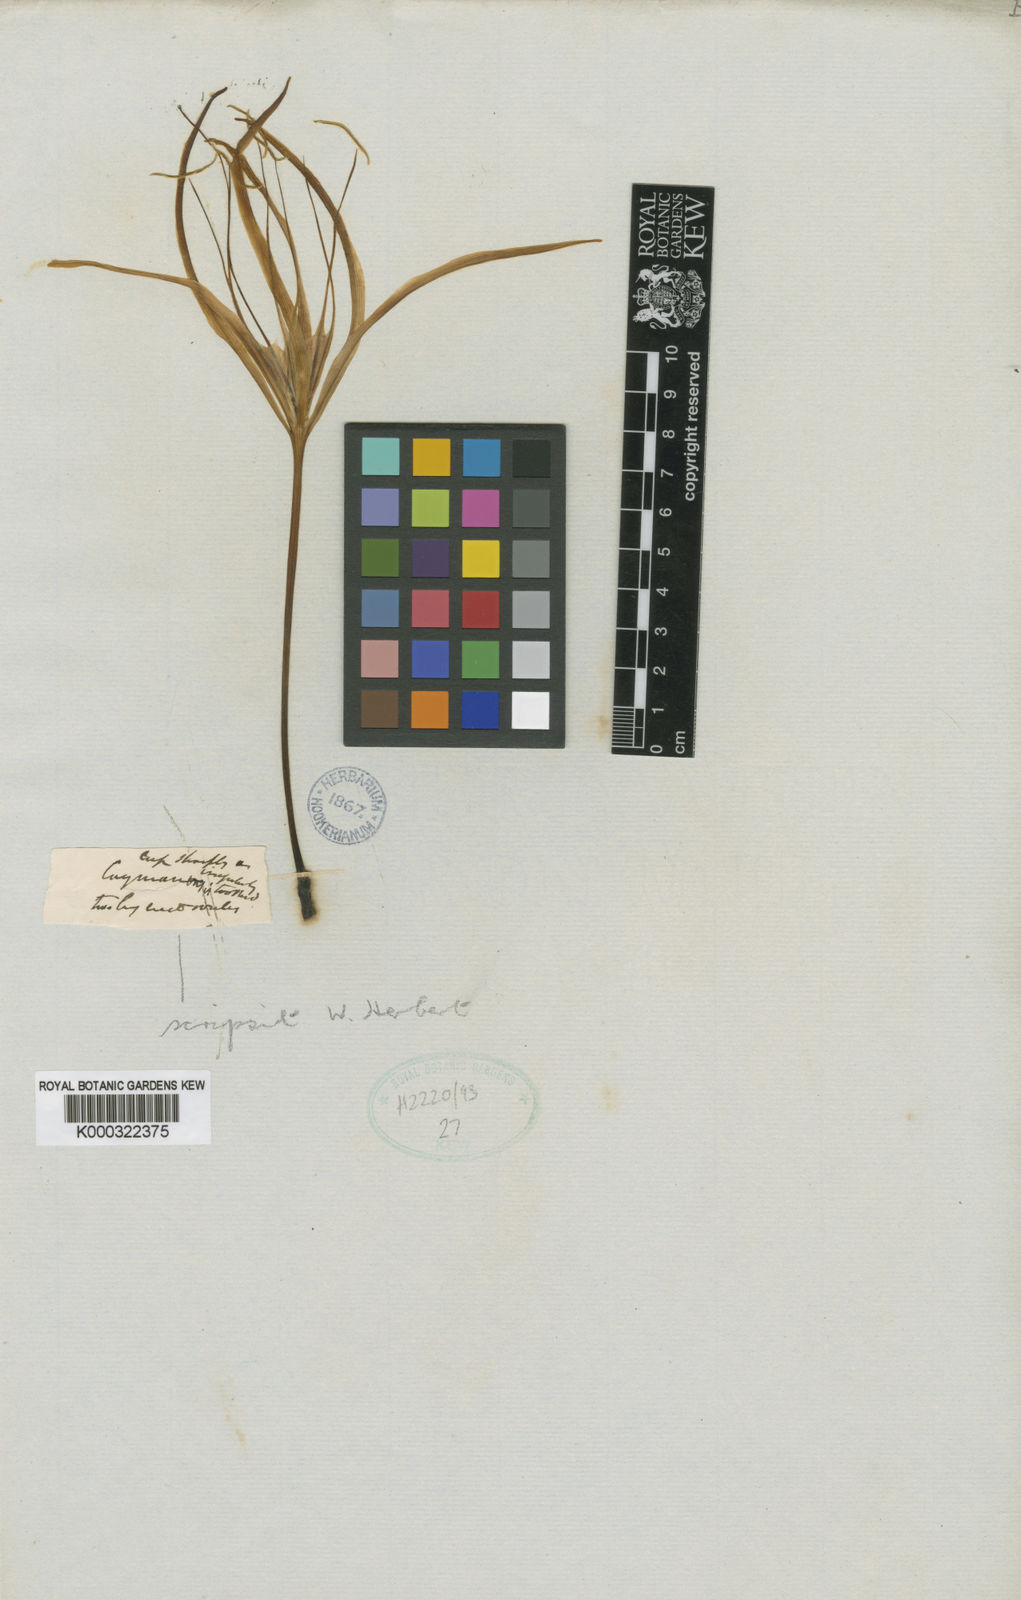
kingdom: Plantae
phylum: Tracheophyta
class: Liliopsida
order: Asparagales
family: Amaryllidaceae
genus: Hymenocallis
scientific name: Hymenocallis latifolia
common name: Cayman islands spider-lily
